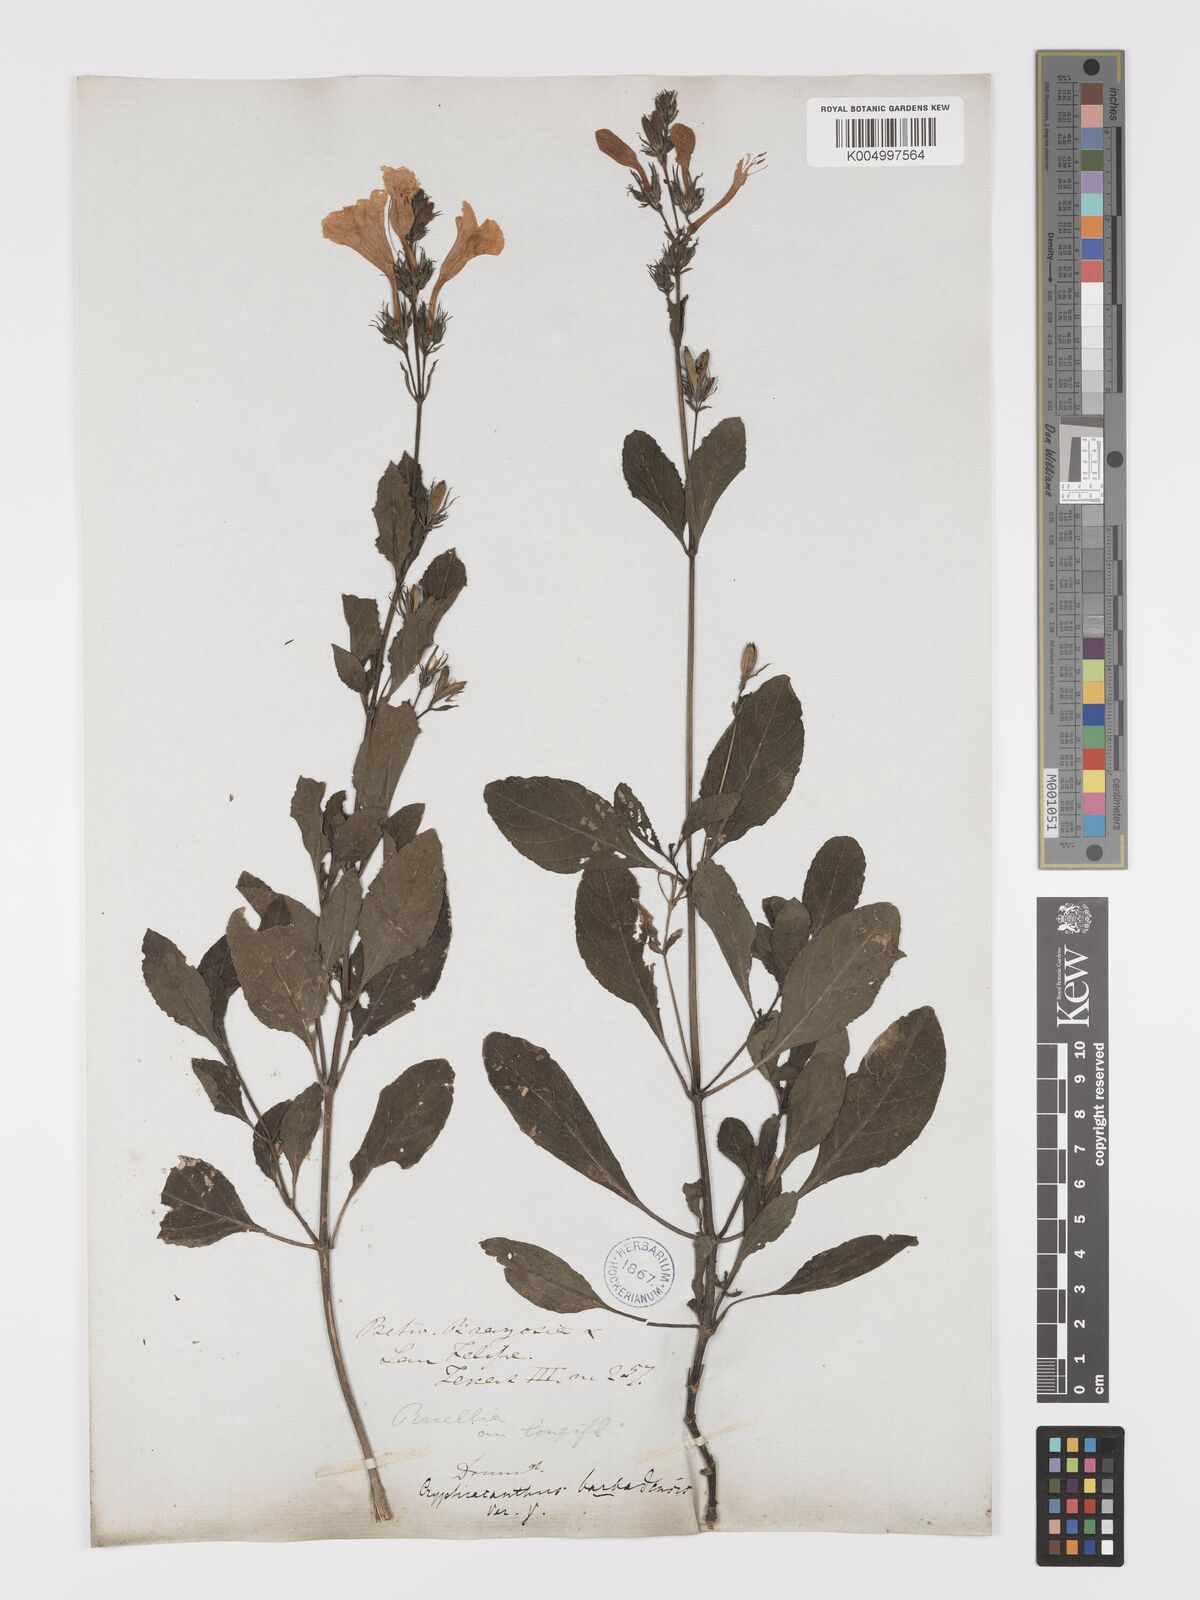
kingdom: Plantae
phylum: Tracheophyta
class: Magnoliopsida
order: Lamiales
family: Acanthaceae
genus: Ruellia
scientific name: Ruellia tuberosa
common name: Devil's bit
